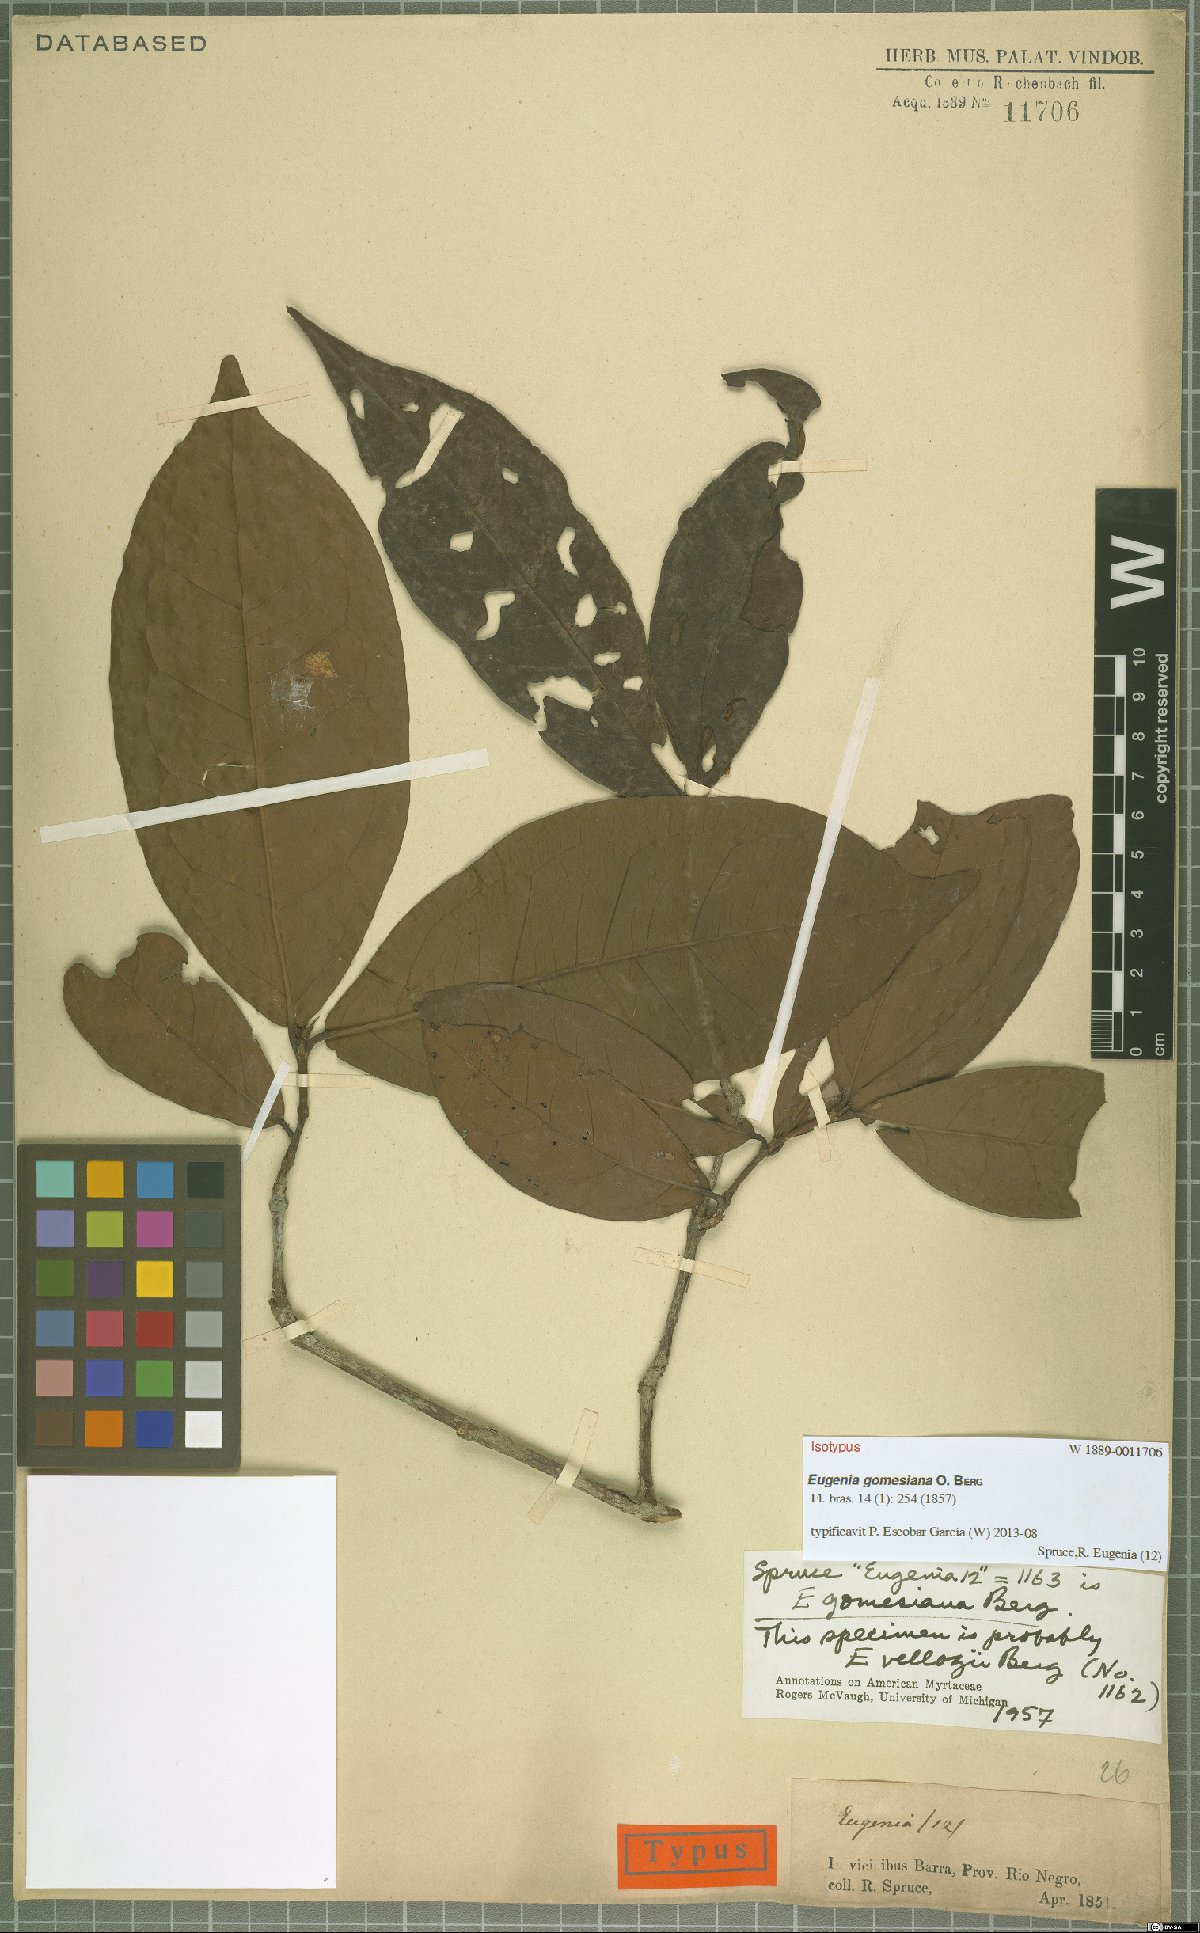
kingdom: Plantae
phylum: Tracheophyta
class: Magnoliopsida
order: Myrtales
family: Myrtaceae
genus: Eugenia
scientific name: Eugenia gomesiana
